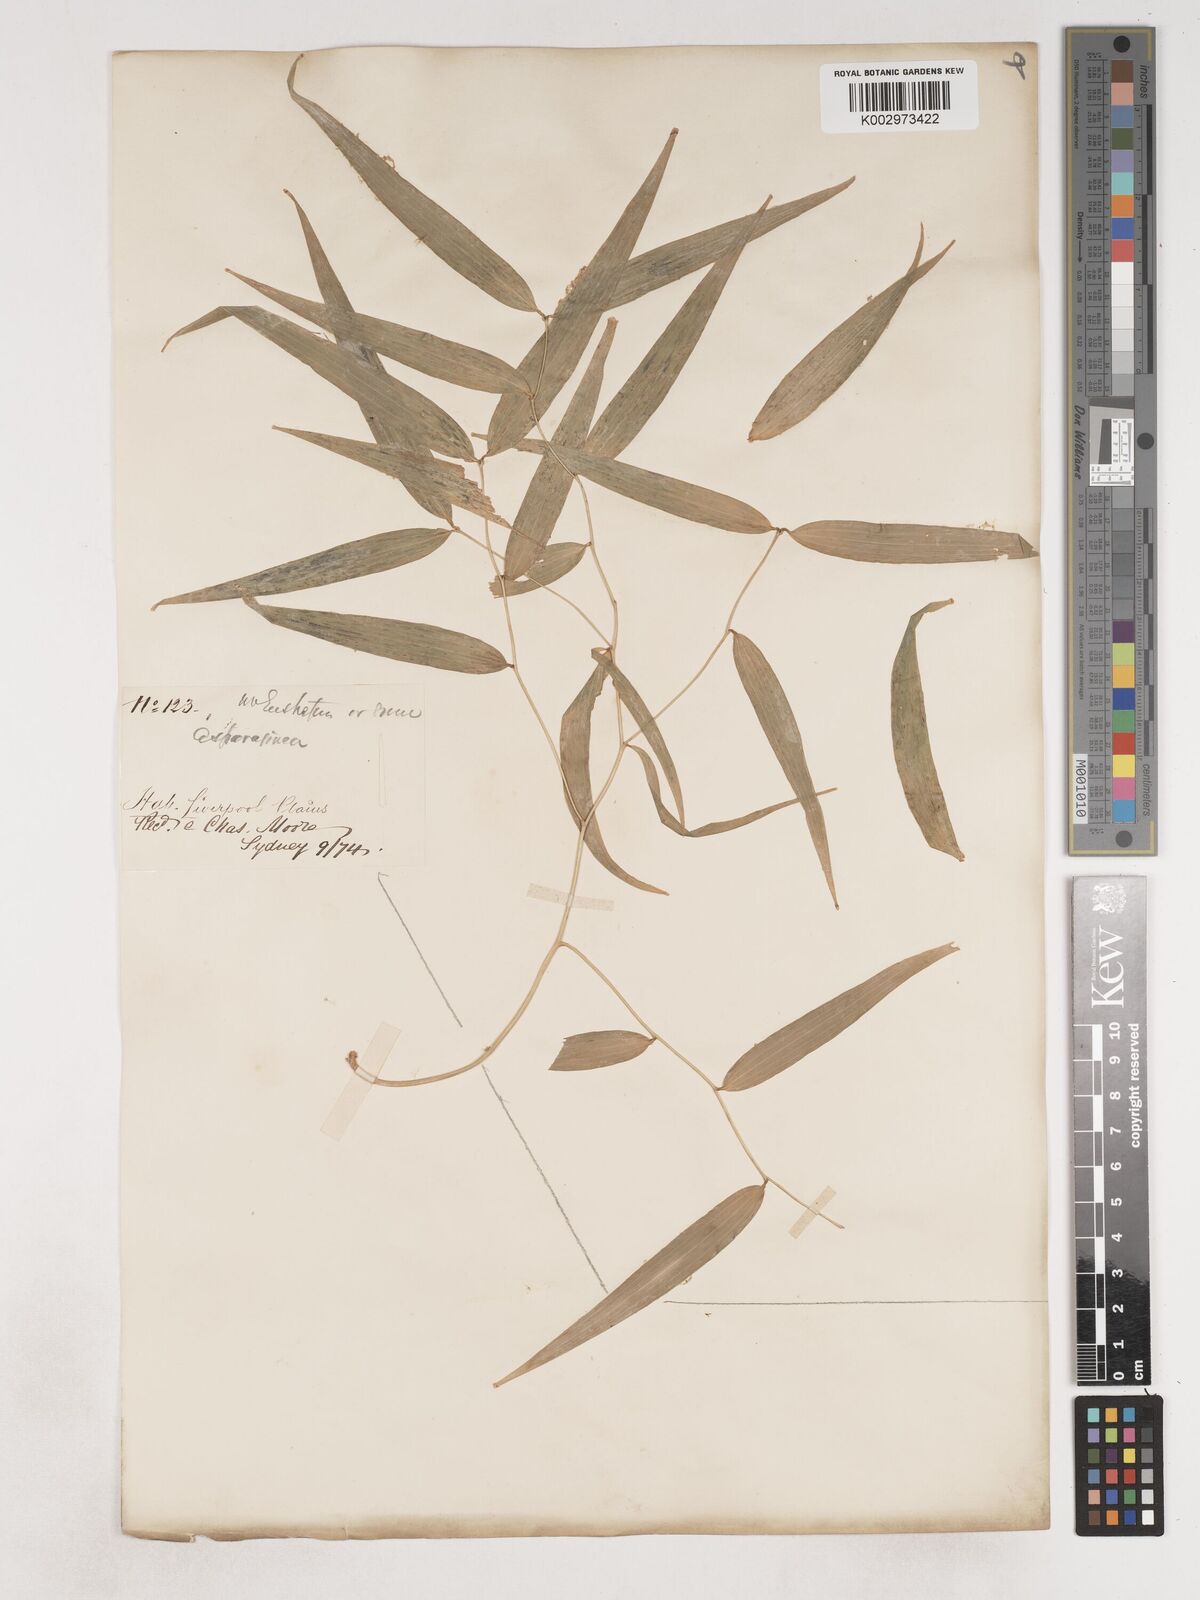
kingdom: Plantae
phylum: Tracheophyta
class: Liliopsida
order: Asparagales
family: Asparagaceae
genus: Eustrephus
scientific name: Eustrephus latifolius
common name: Orangevine
